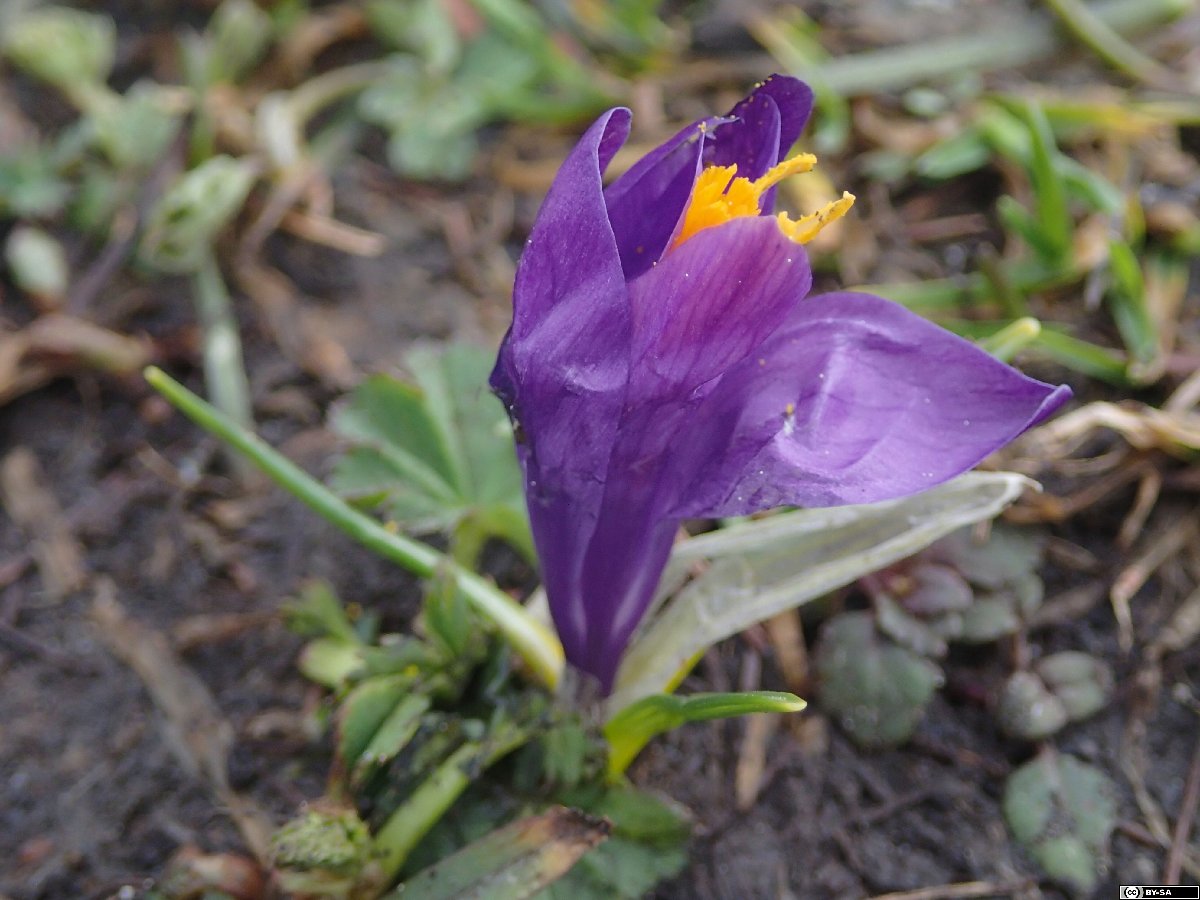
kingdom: Plantae
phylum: Tracheophyta
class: Liliopsida
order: Asparagales
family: Iridaceae
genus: Crocus
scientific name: Crocus neapolitanus
